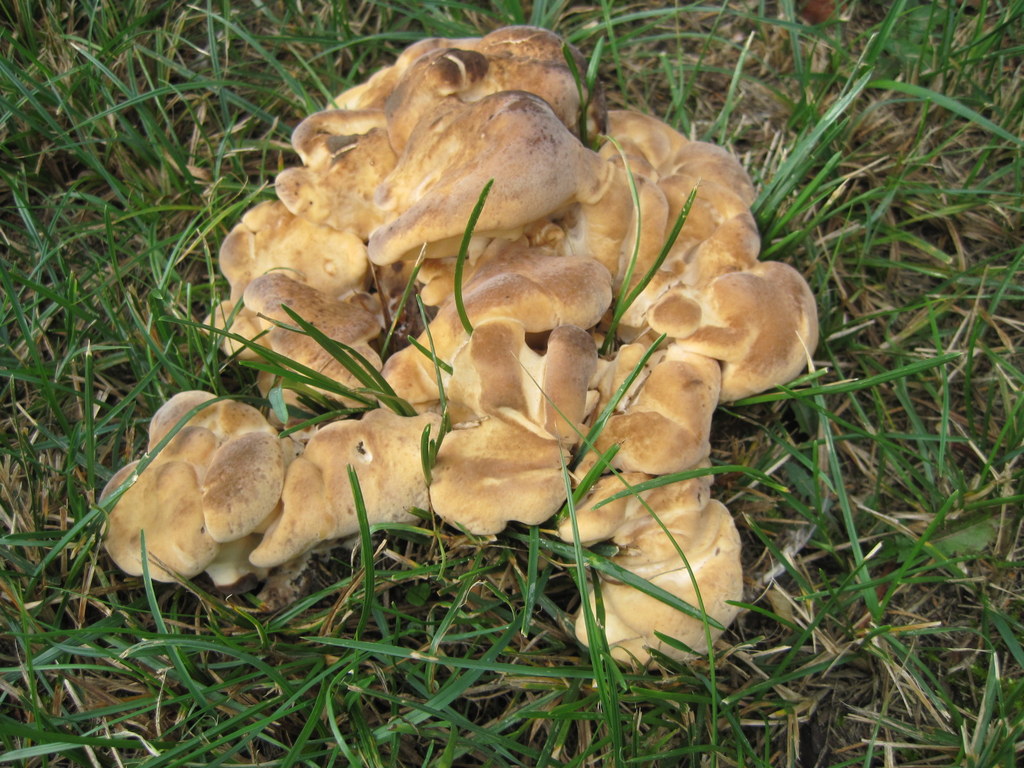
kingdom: Fungi
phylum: Basidiomycota
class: Agaricomycetes
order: Polyporales
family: Meripilaceae
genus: Meripilus
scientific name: Meripilus giganteus
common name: kæmpeporesvamp
